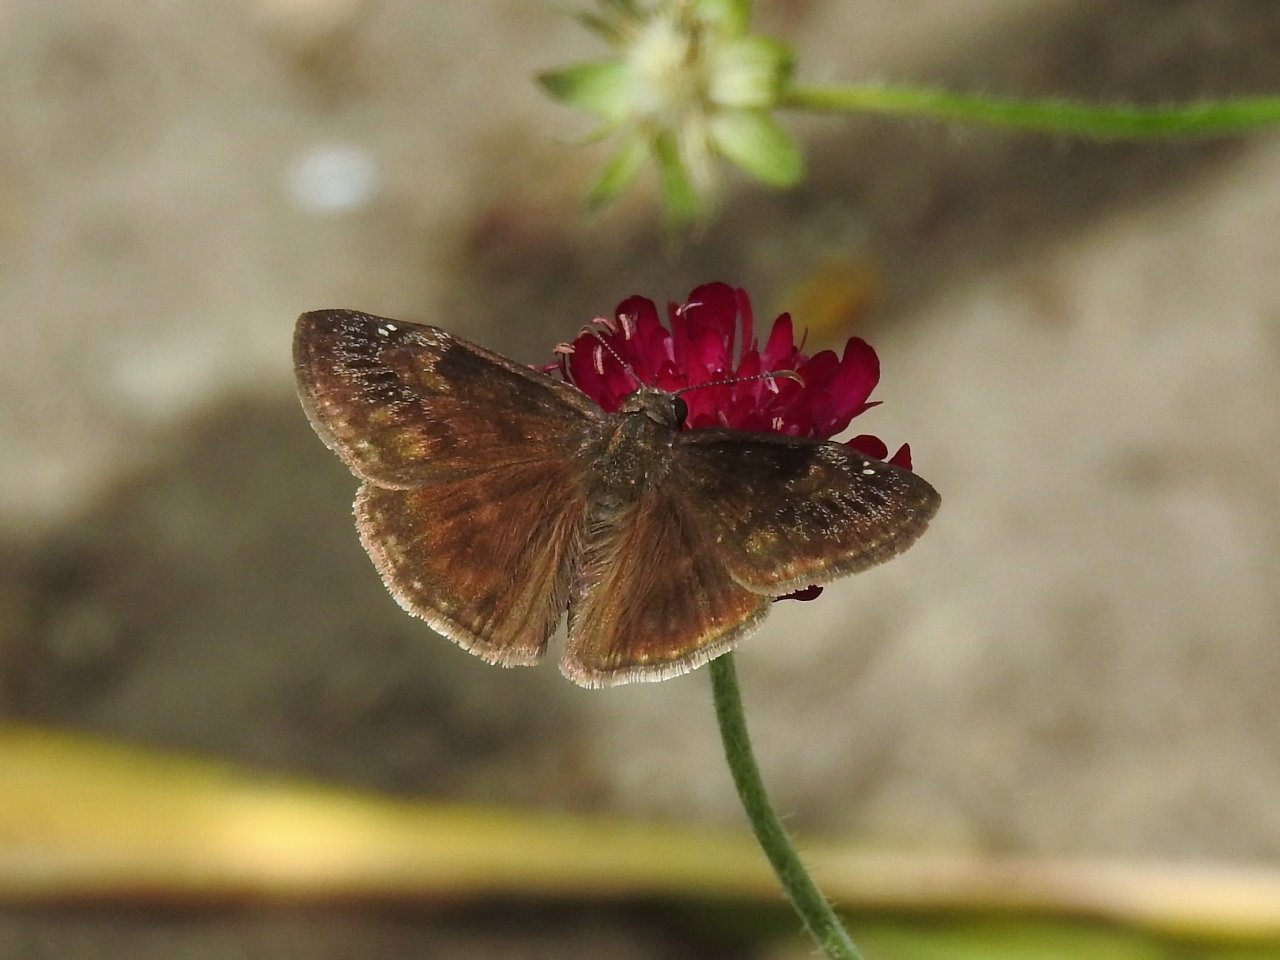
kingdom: Animalia
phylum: Arthropoda
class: Insecta
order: Lepidoptera
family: Hesperiidae
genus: Gesta
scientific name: Gesta
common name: Wild Indigo Duskywing
